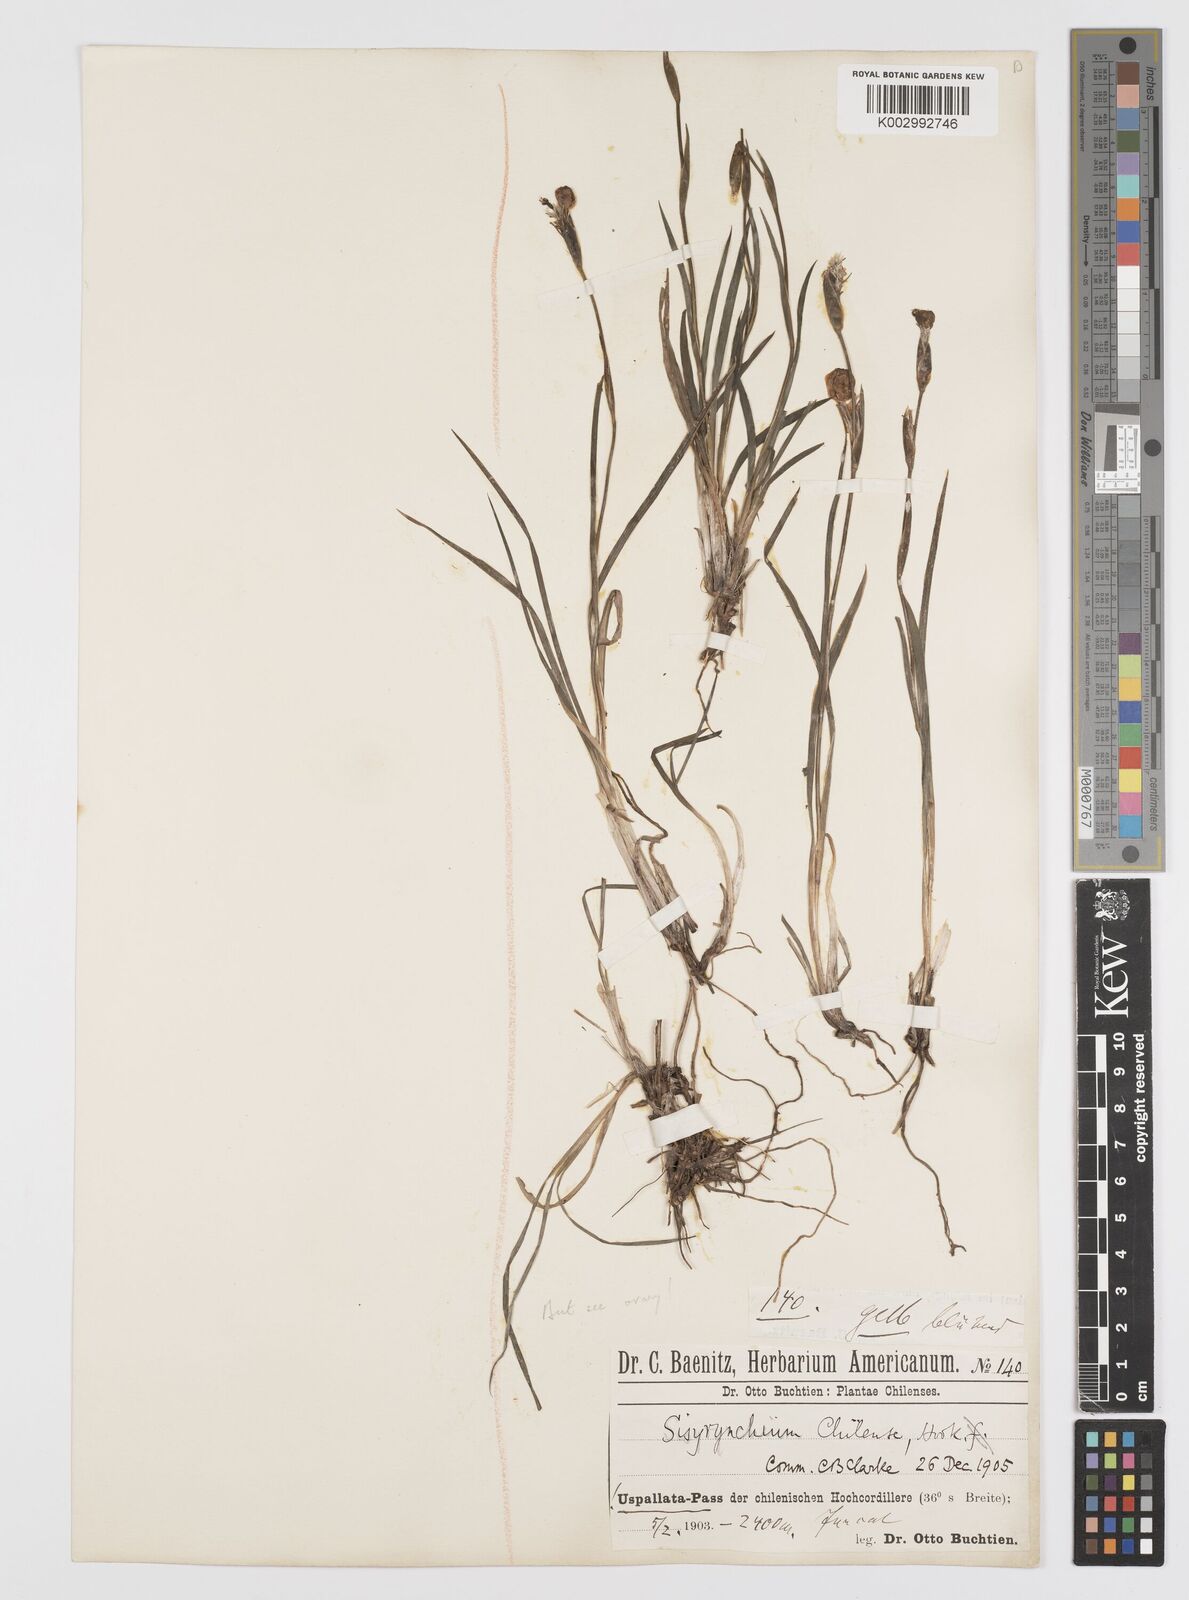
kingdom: Plantae
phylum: Tracheophyta
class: Liliopsida
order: Asparagales
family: Iridaceae
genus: Sisyrinchium
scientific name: Sisyrinchium chilense
